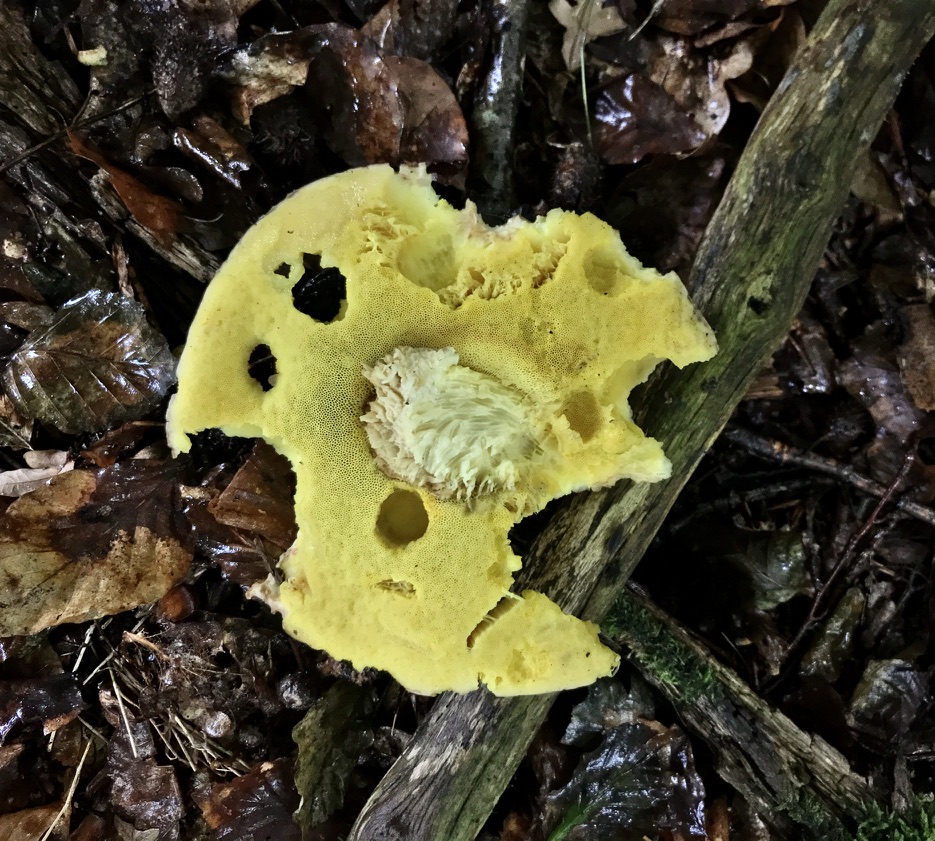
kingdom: Fungi
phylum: Basidiomycota
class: Agaricomycetes
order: Boletales
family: Boletaceae
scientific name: Boletaceae
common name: rørhatfamilien
